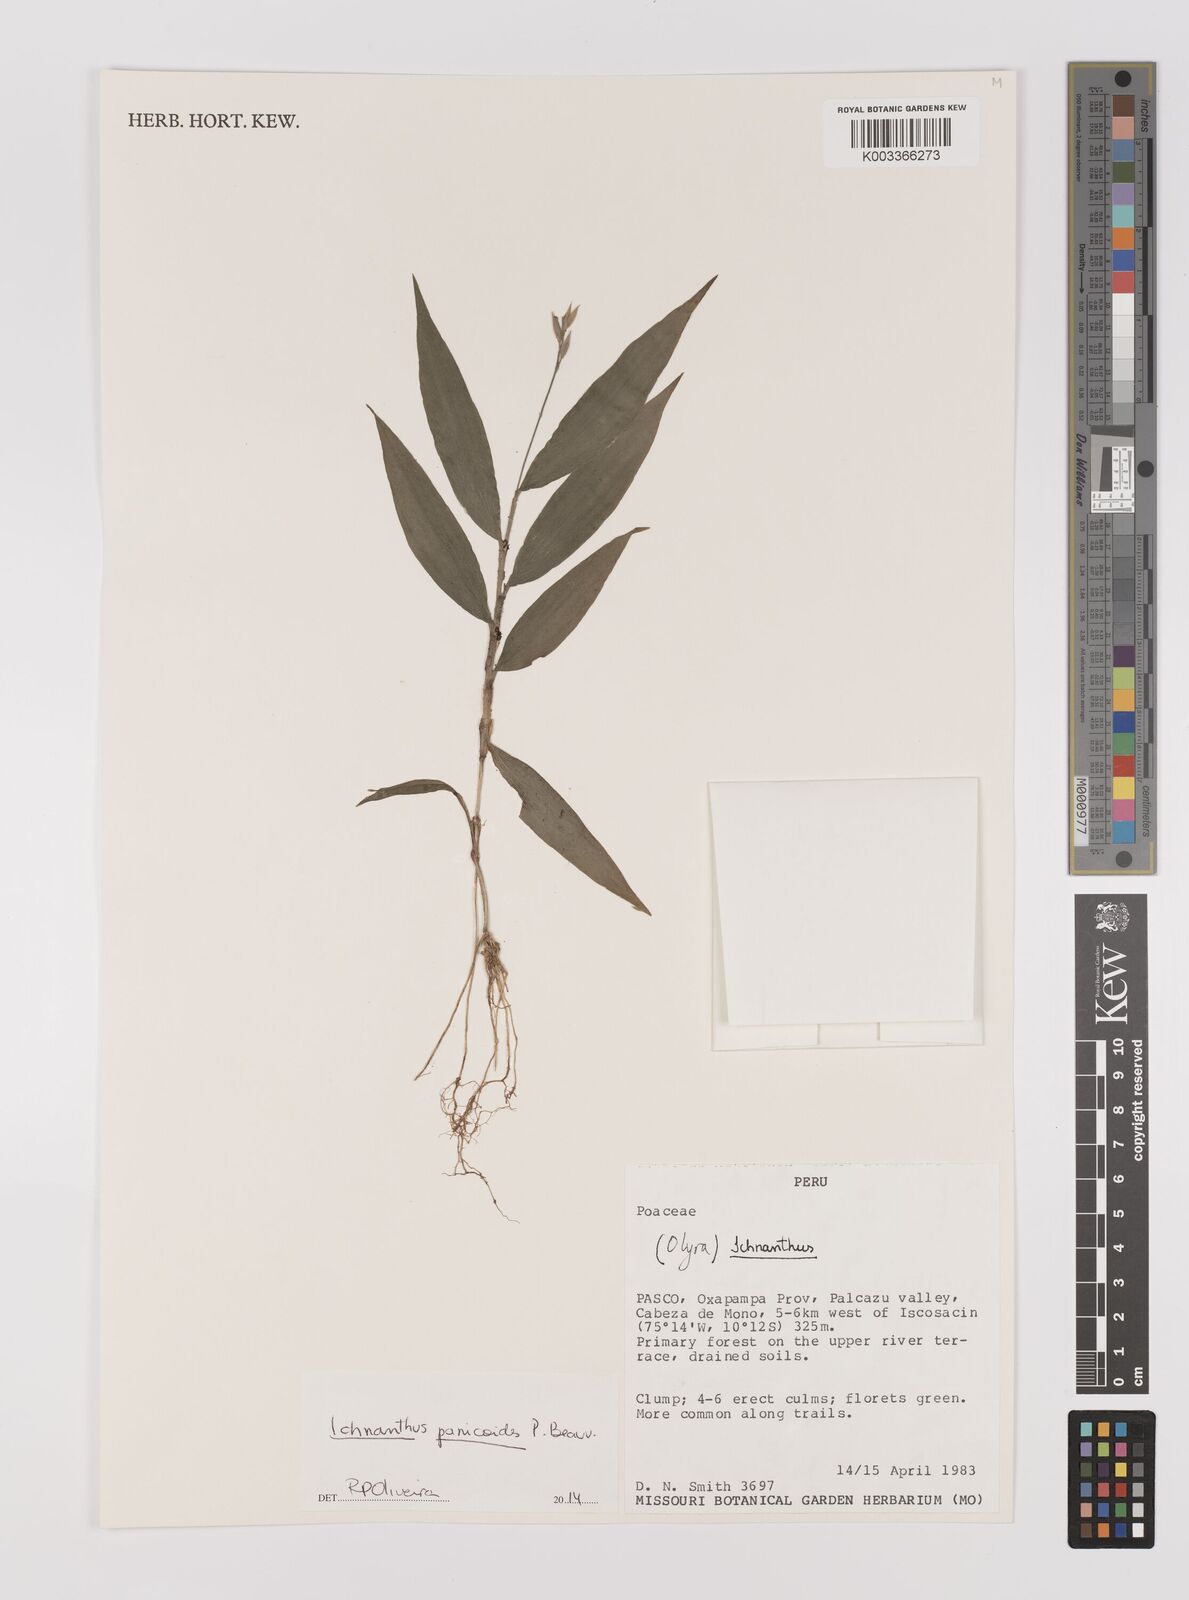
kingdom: Plantae
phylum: Tracheophyta
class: Liliopsida
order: Poales
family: Poaceae
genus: Ichnanthus
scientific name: Ichnanthus panicoides
